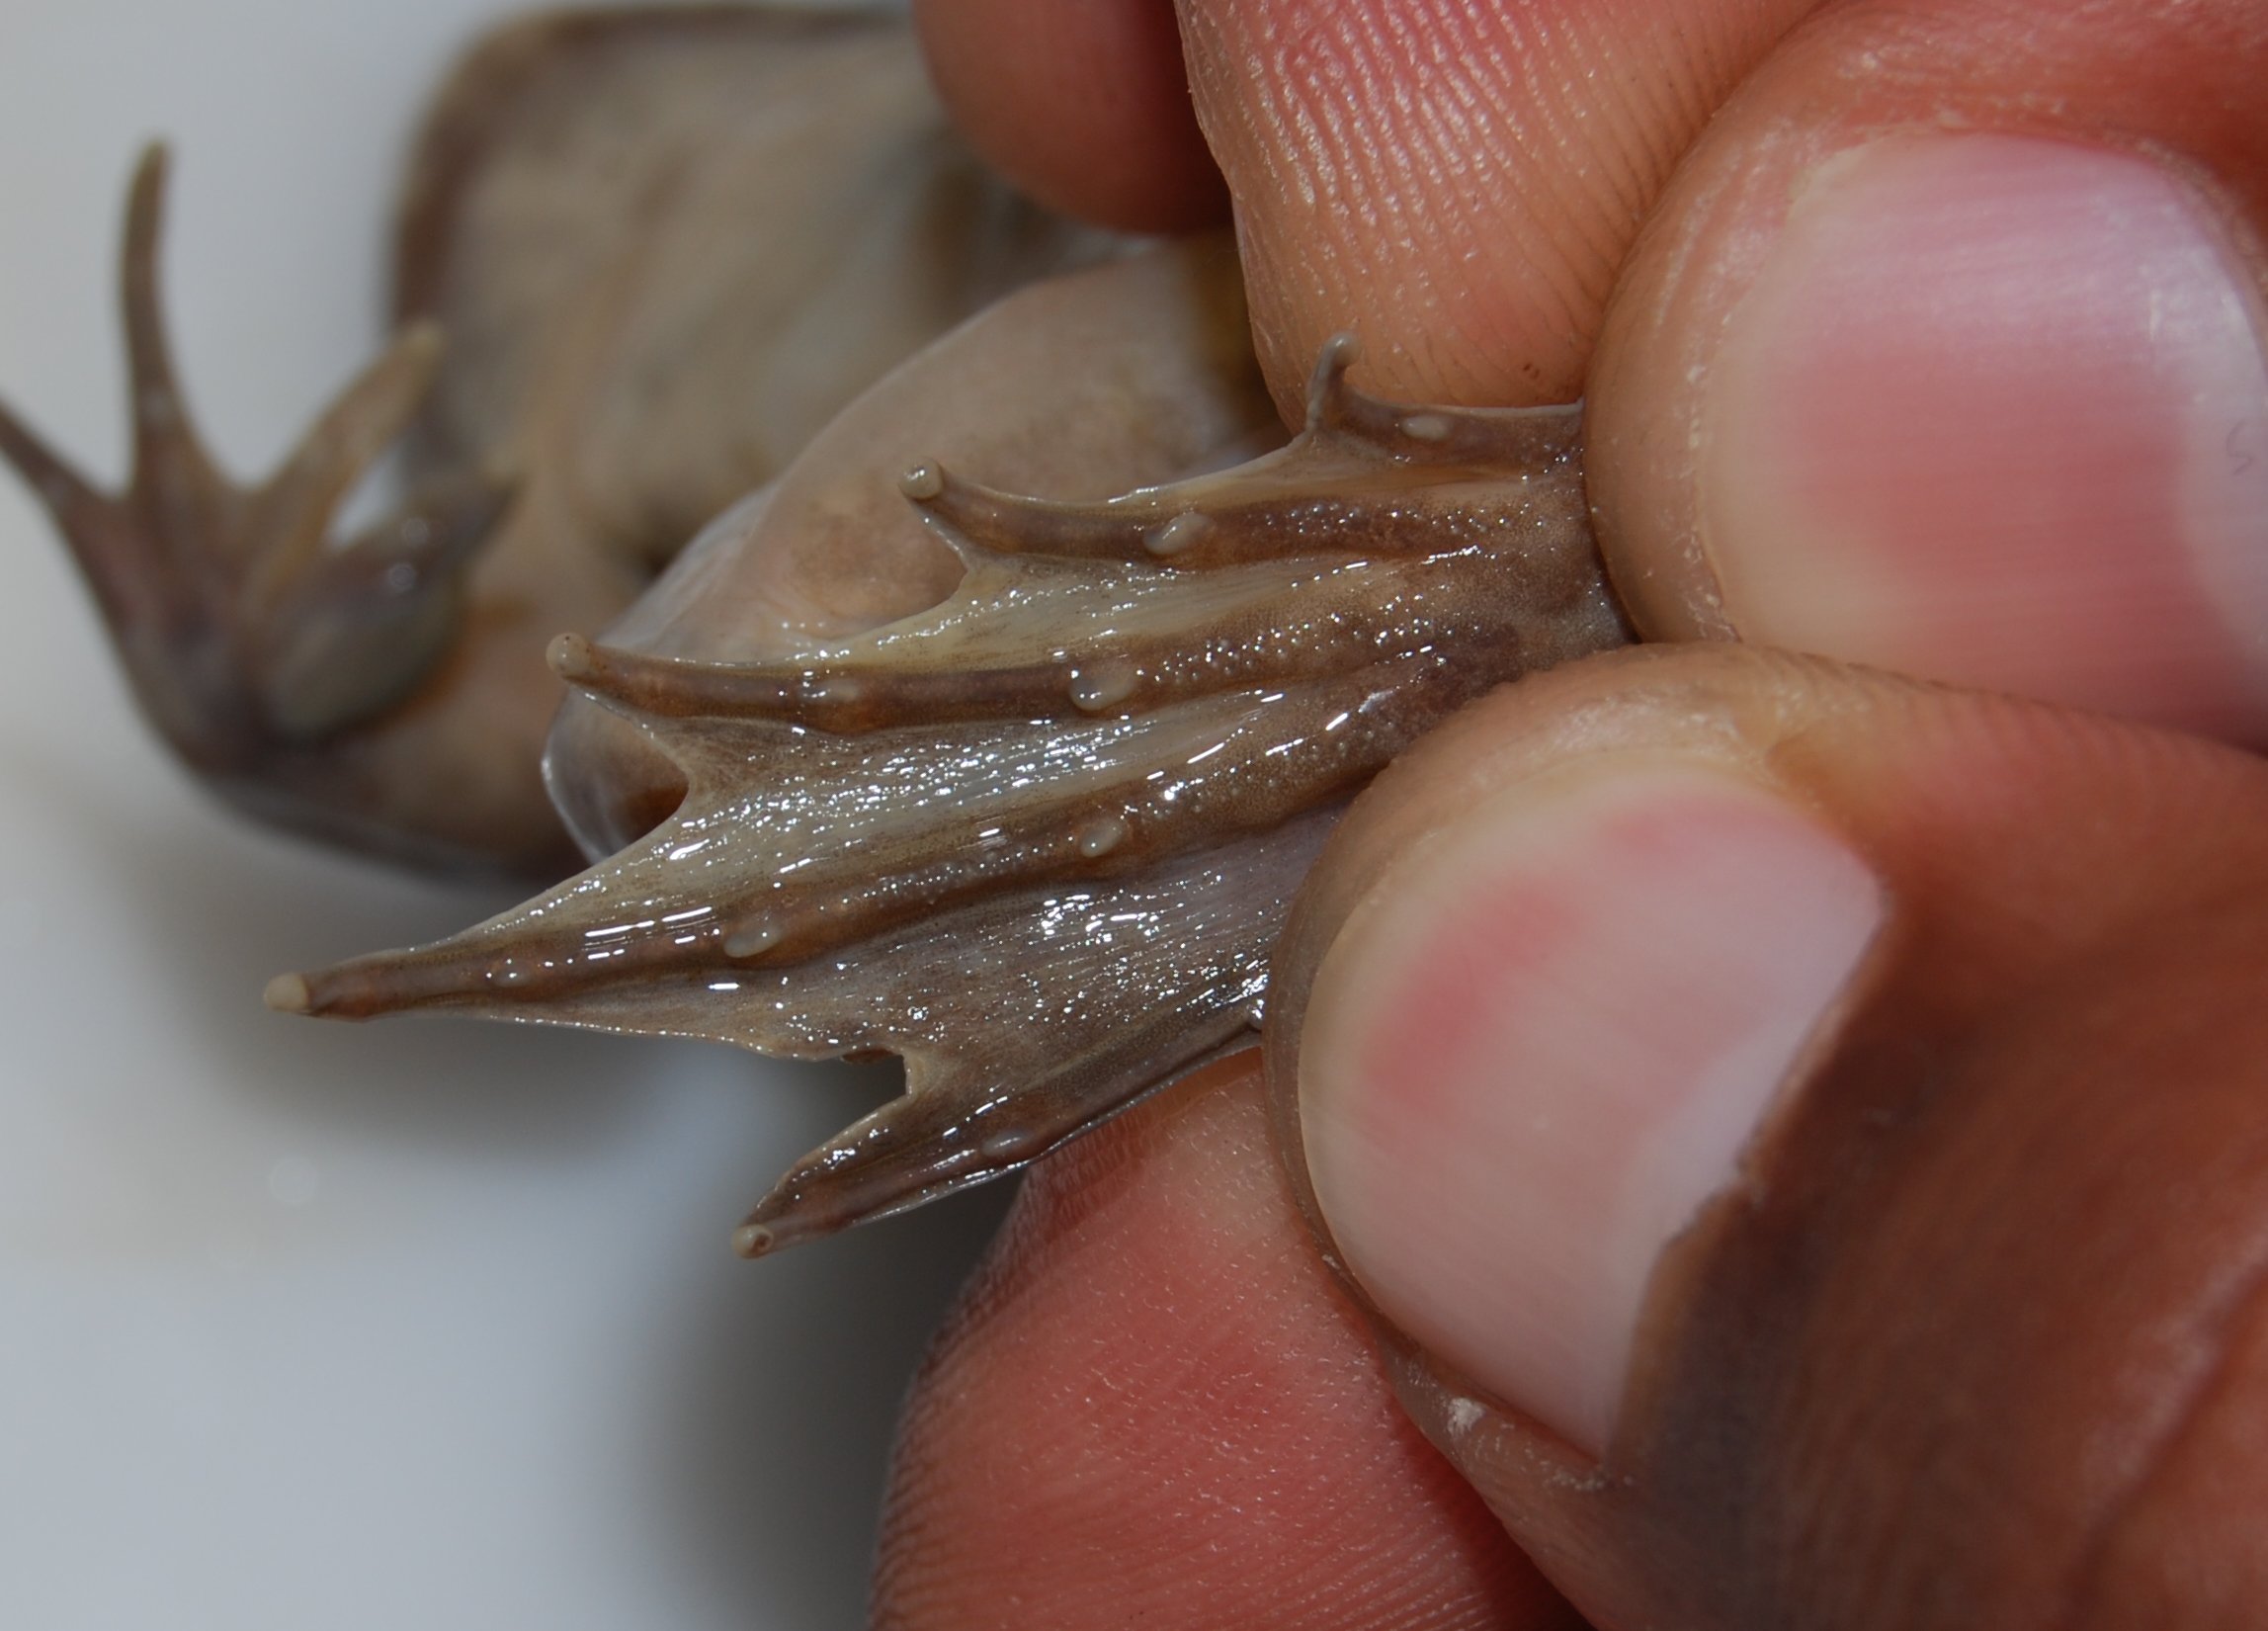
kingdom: Animalia
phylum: Chordata
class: Amphibia
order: Anura
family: Pyxicephalidae
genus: Amietia
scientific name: Amietia fuscigula
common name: Cape rana
